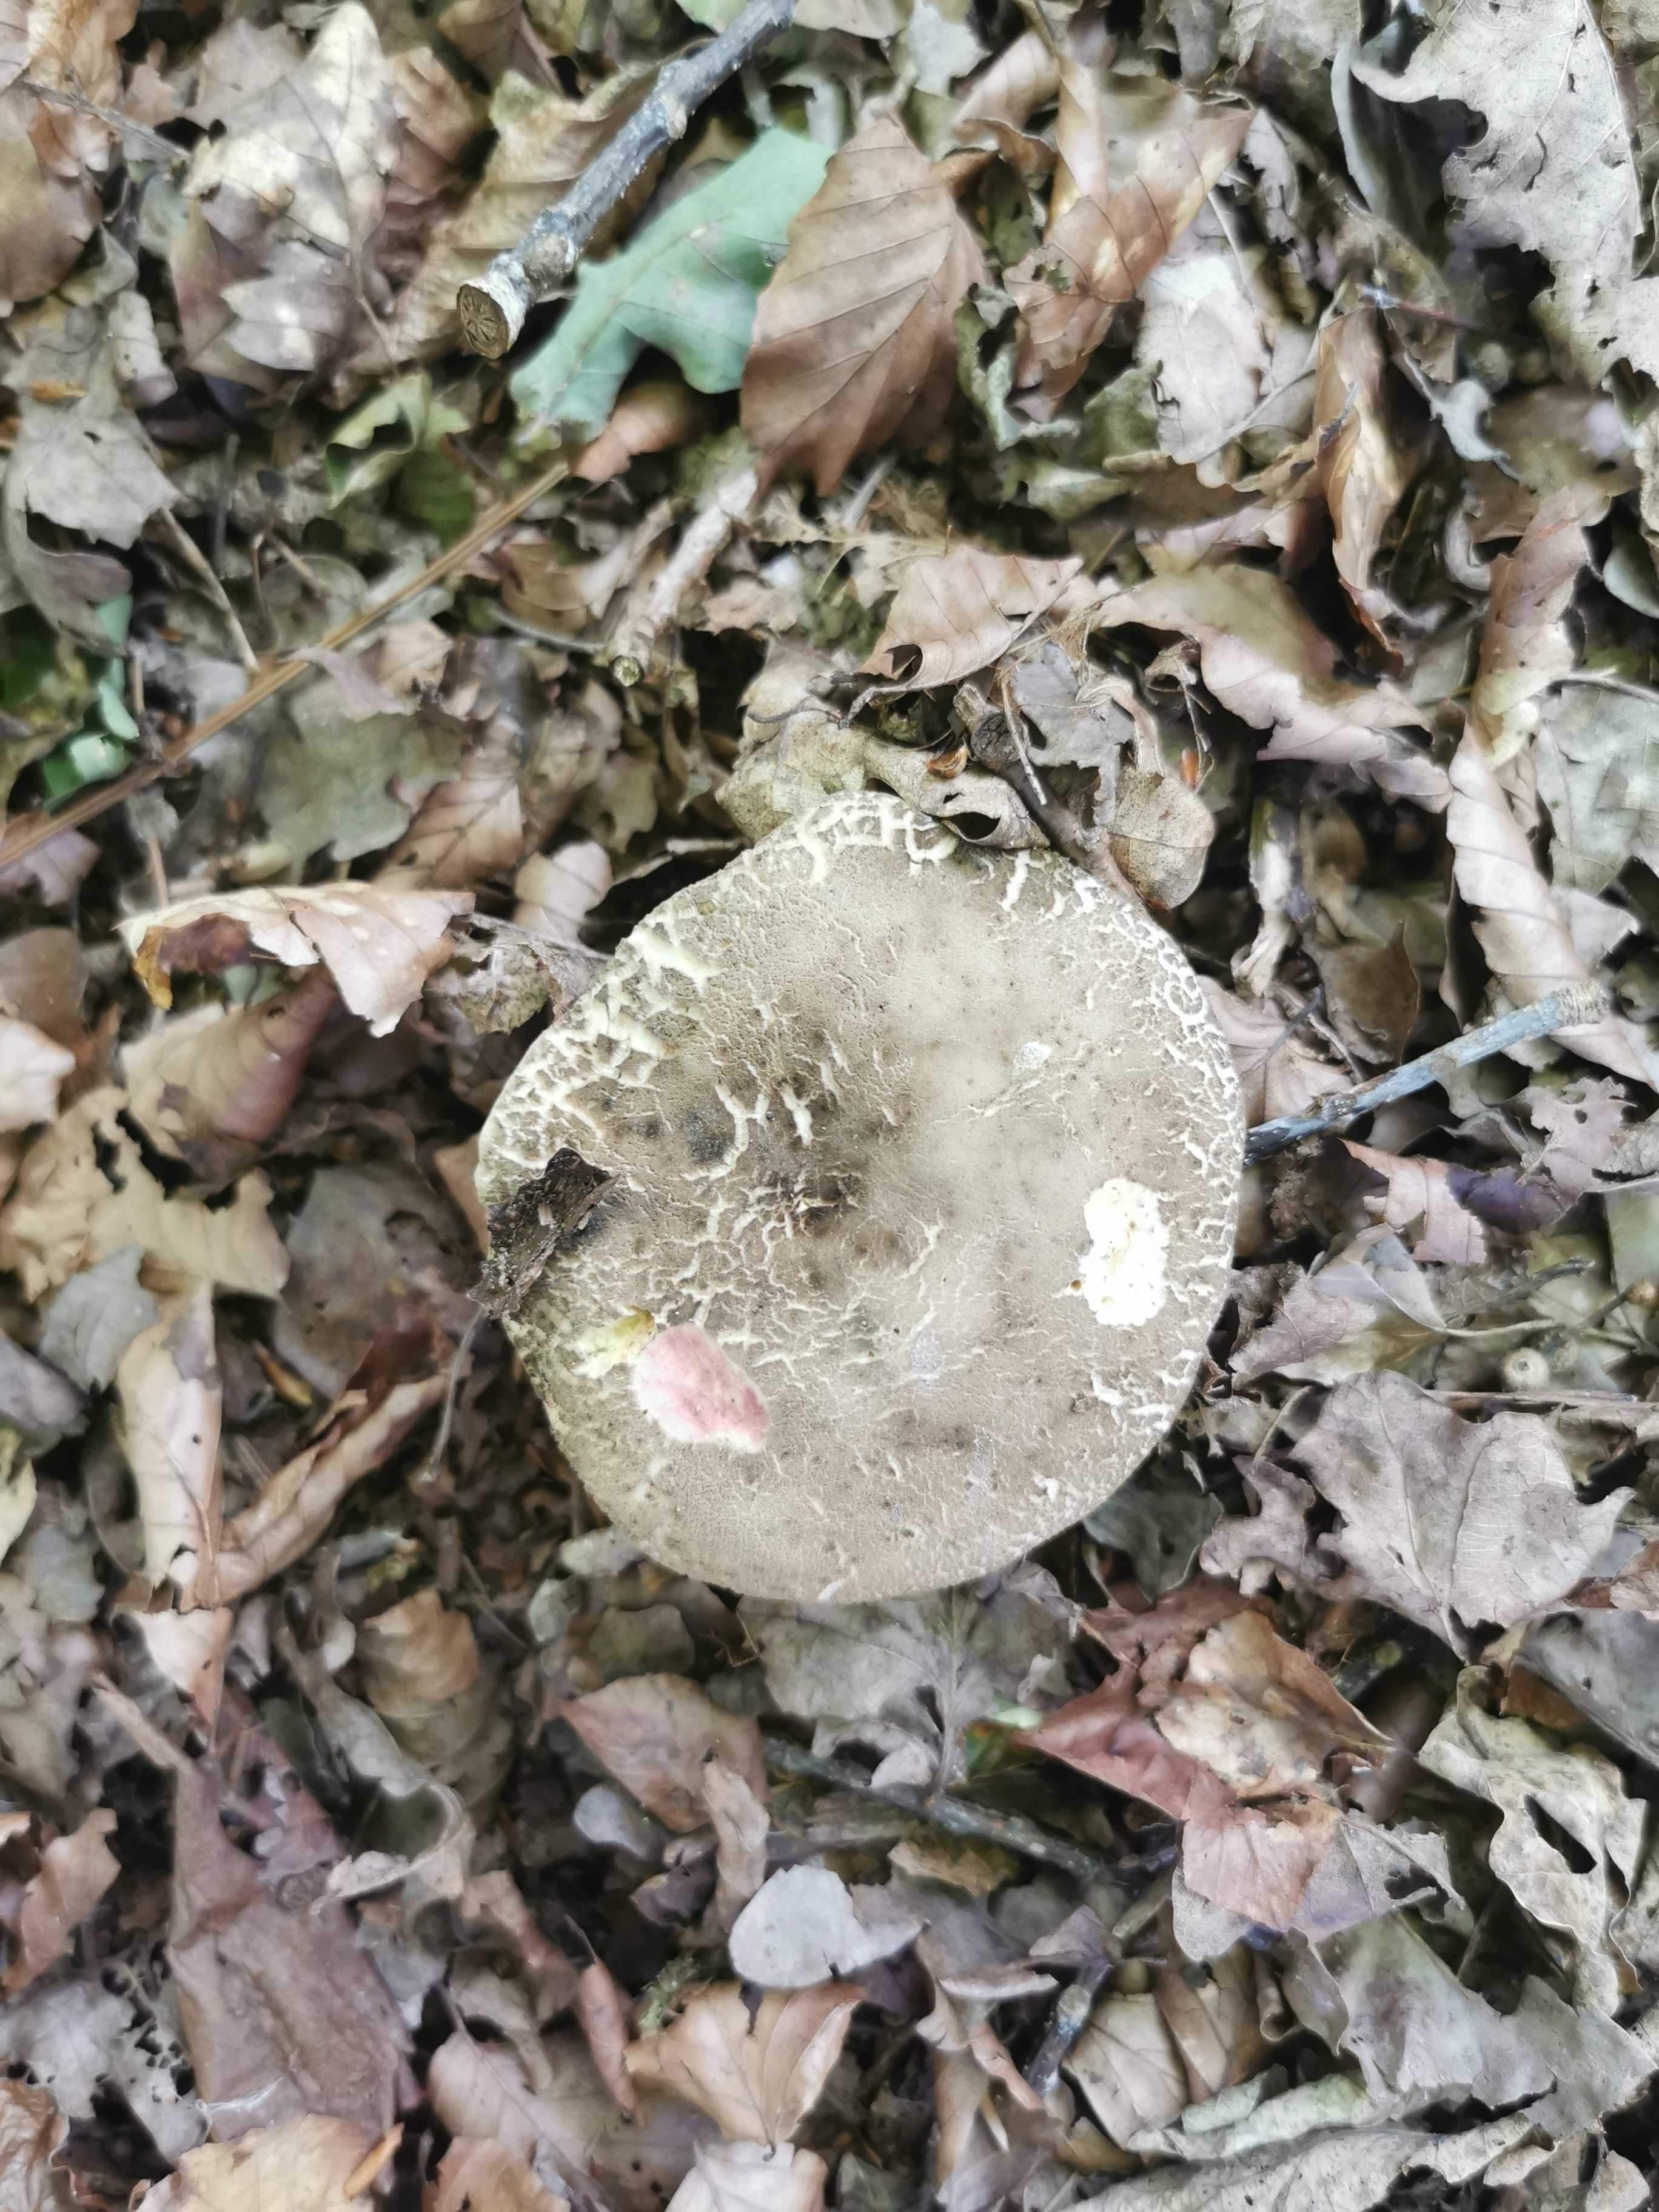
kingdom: Fungi
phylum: Basidiomycota
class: Agaricomycetes
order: Boletales
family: Boletaceae
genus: Xerocomellus
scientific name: Xerocomellus
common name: dværgrørhat
